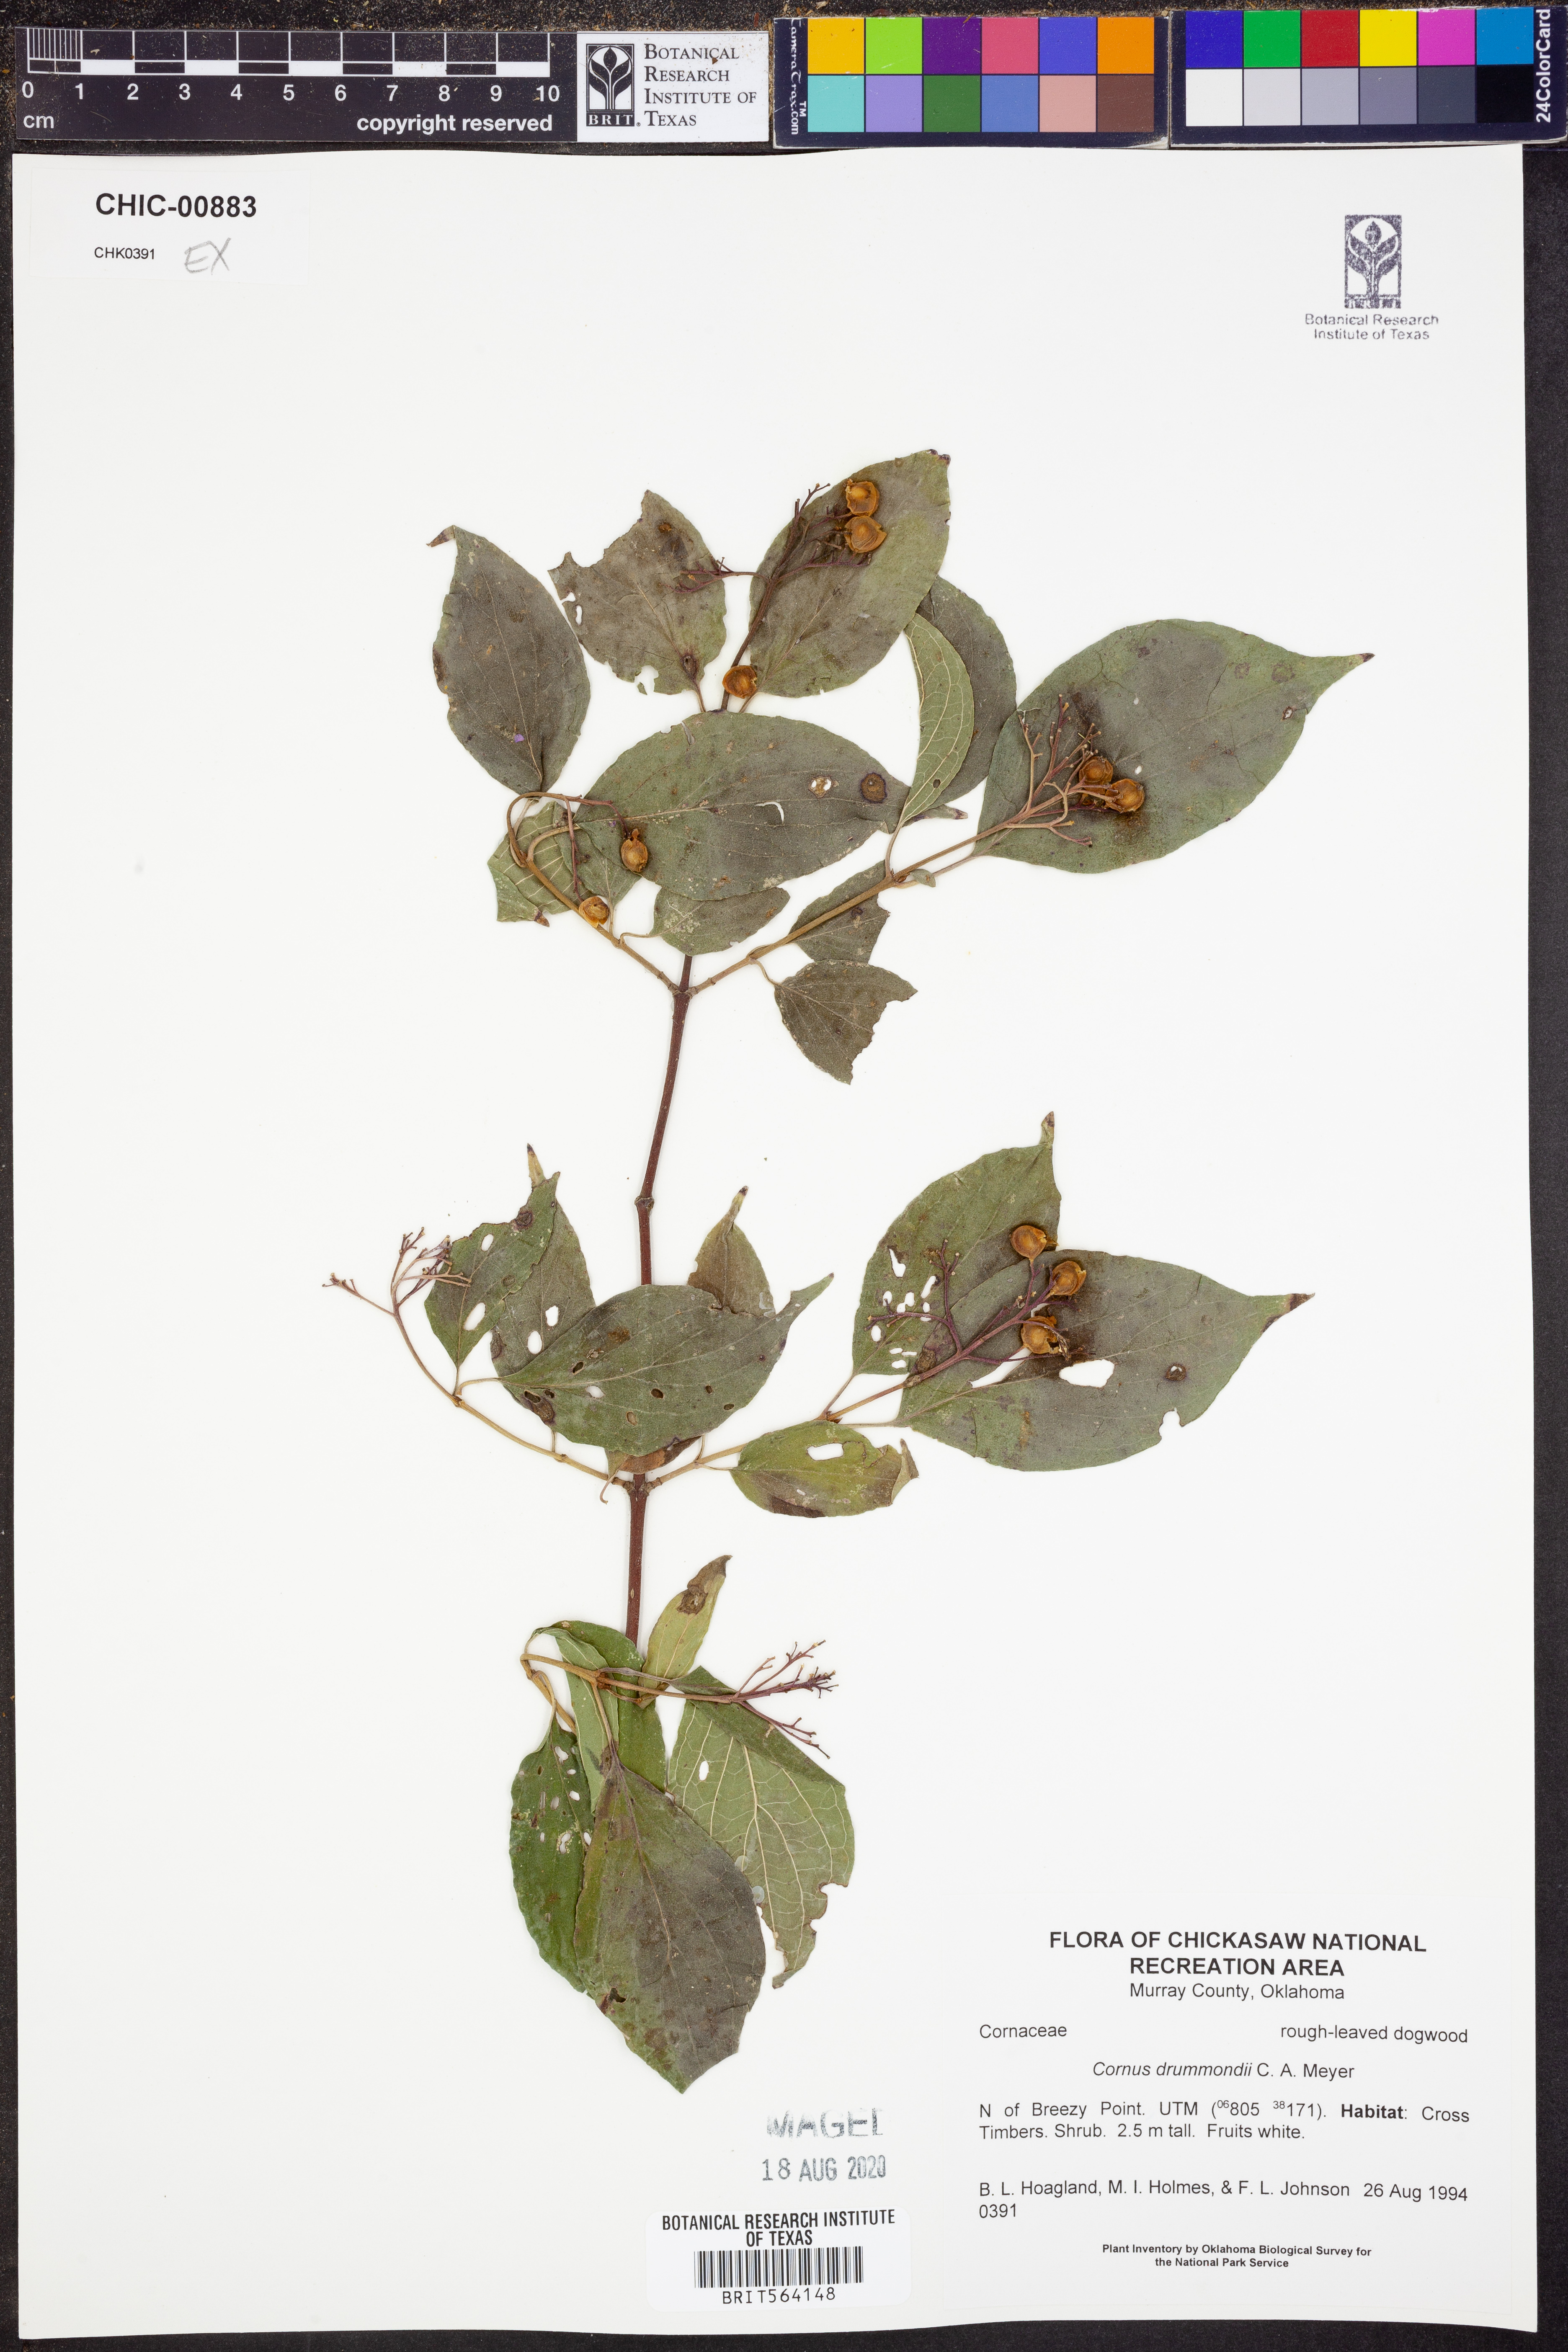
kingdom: Plantae
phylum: Tracheophyta
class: Magnoliopsida
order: Cornales
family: Cornaceae
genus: Cornus
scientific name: Cornus drummondii
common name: Rough-leaf dogwood
